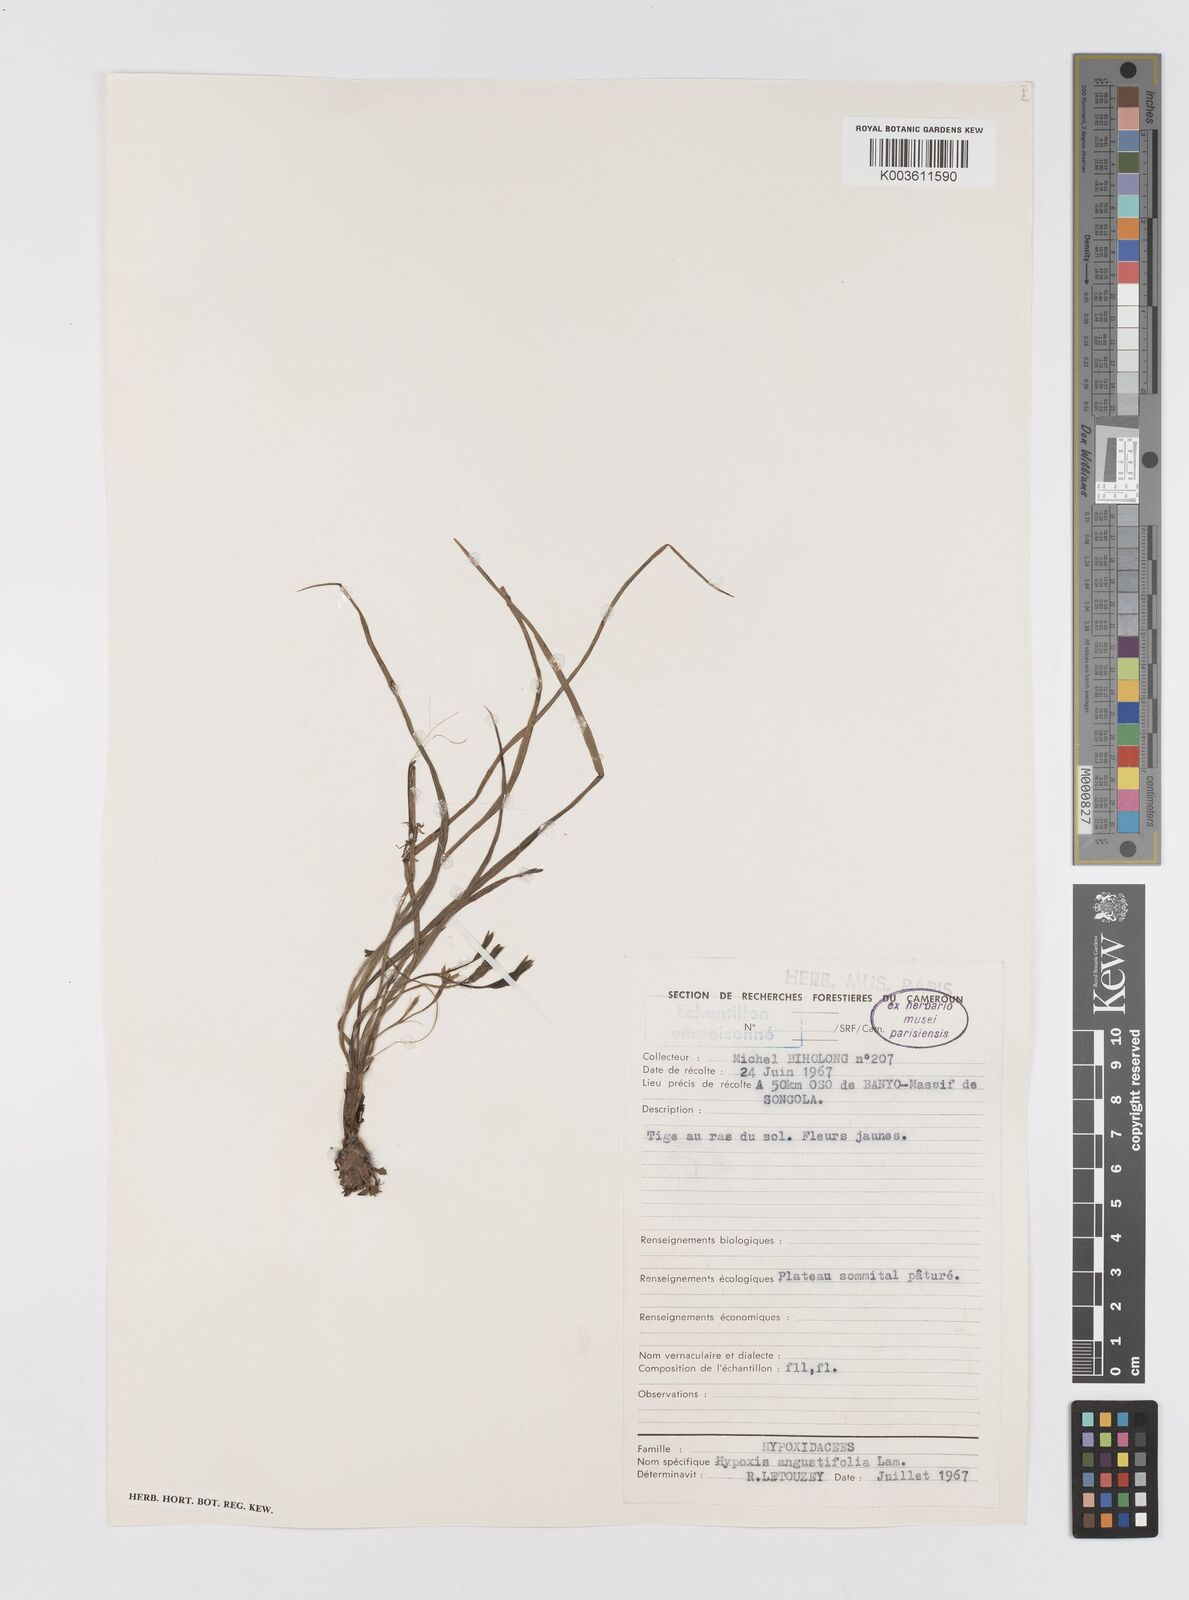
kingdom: Plantae
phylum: Tracheophyta
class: Liliopsida
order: Asparagales
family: Hypoxidaceae
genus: Hypoxis
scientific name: Hypoxis angustifolia
